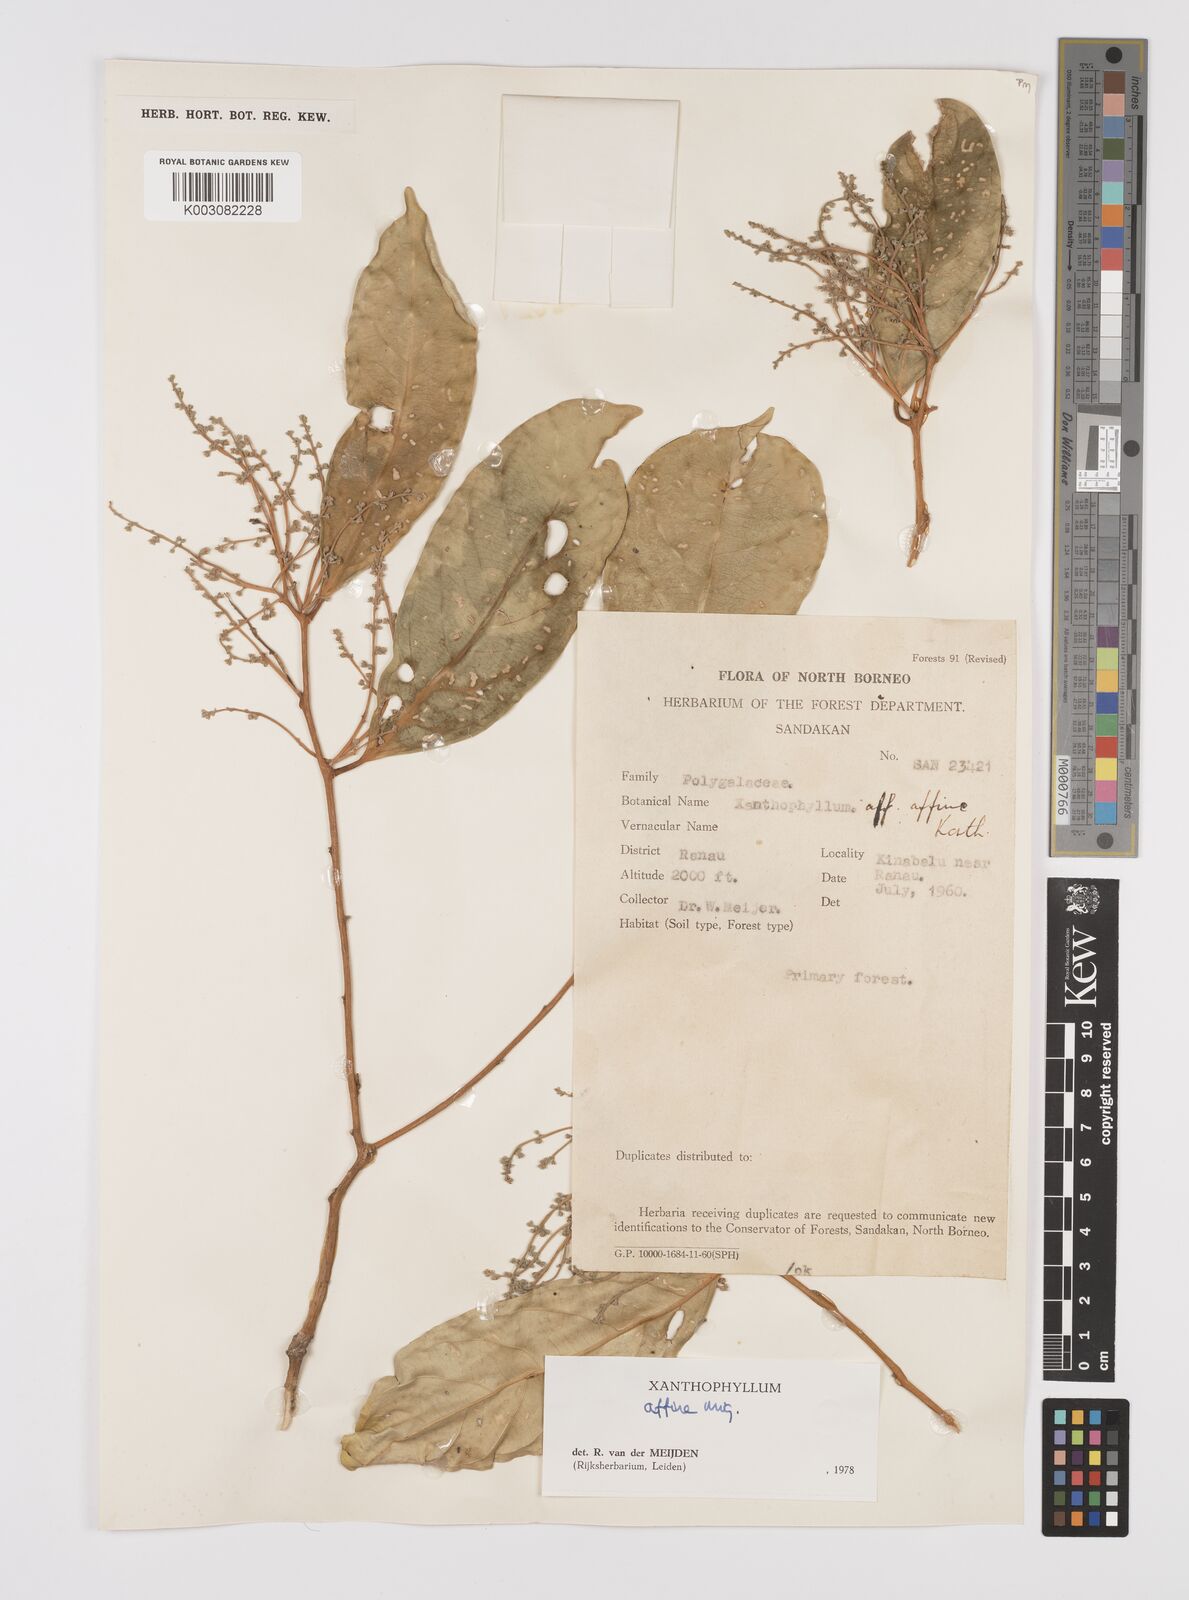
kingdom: Plantae
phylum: Tracheophyta
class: Magnoliopsida
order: Fabales
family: Polygalaceae
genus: Xanthophyllum
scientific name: Xanthophyllum flavescens
